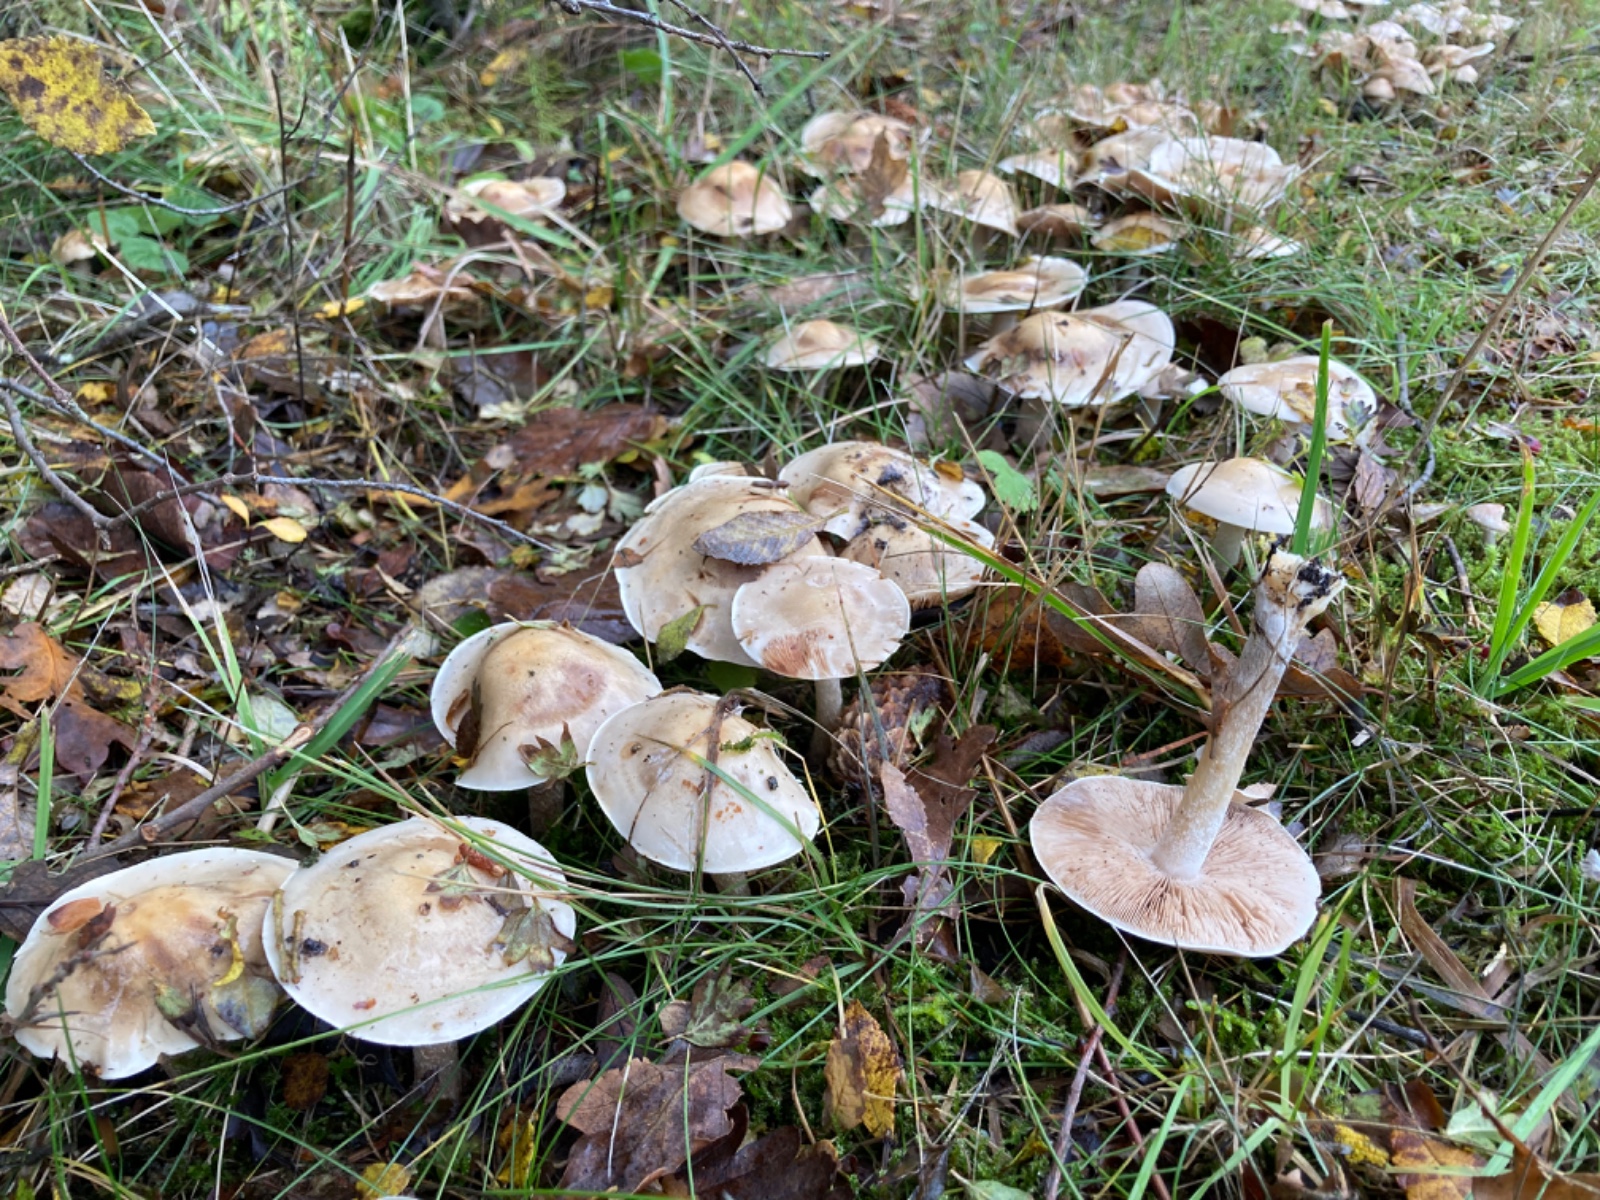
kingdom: Fungi
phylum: Basidiomycota
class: Agaricomycetes
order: Agaricales
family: Hymenogastraceae
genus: Hebeloma
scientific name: Hebeloma crustuliniforme
